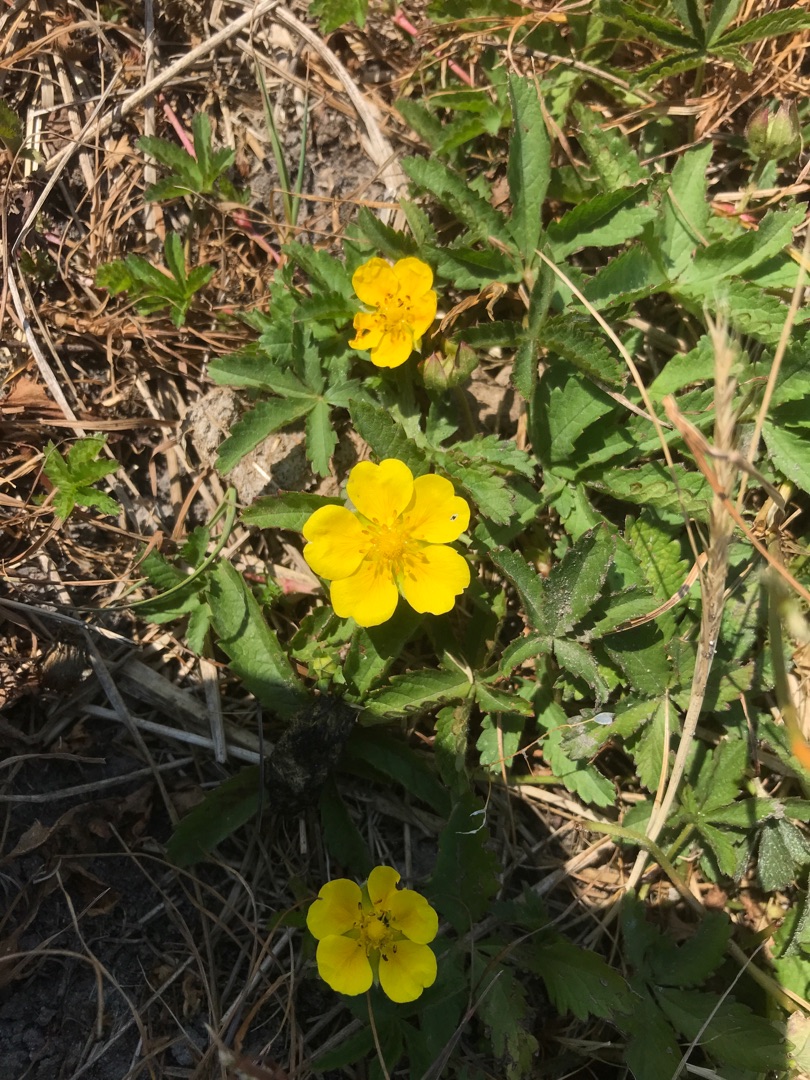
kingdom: Plantae
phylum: Tracheophyta
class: Magnoliopsida
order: Rosales
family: Rosaceae
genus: Potentilla
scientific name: Potentilla reptans
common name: Krybende potentil
